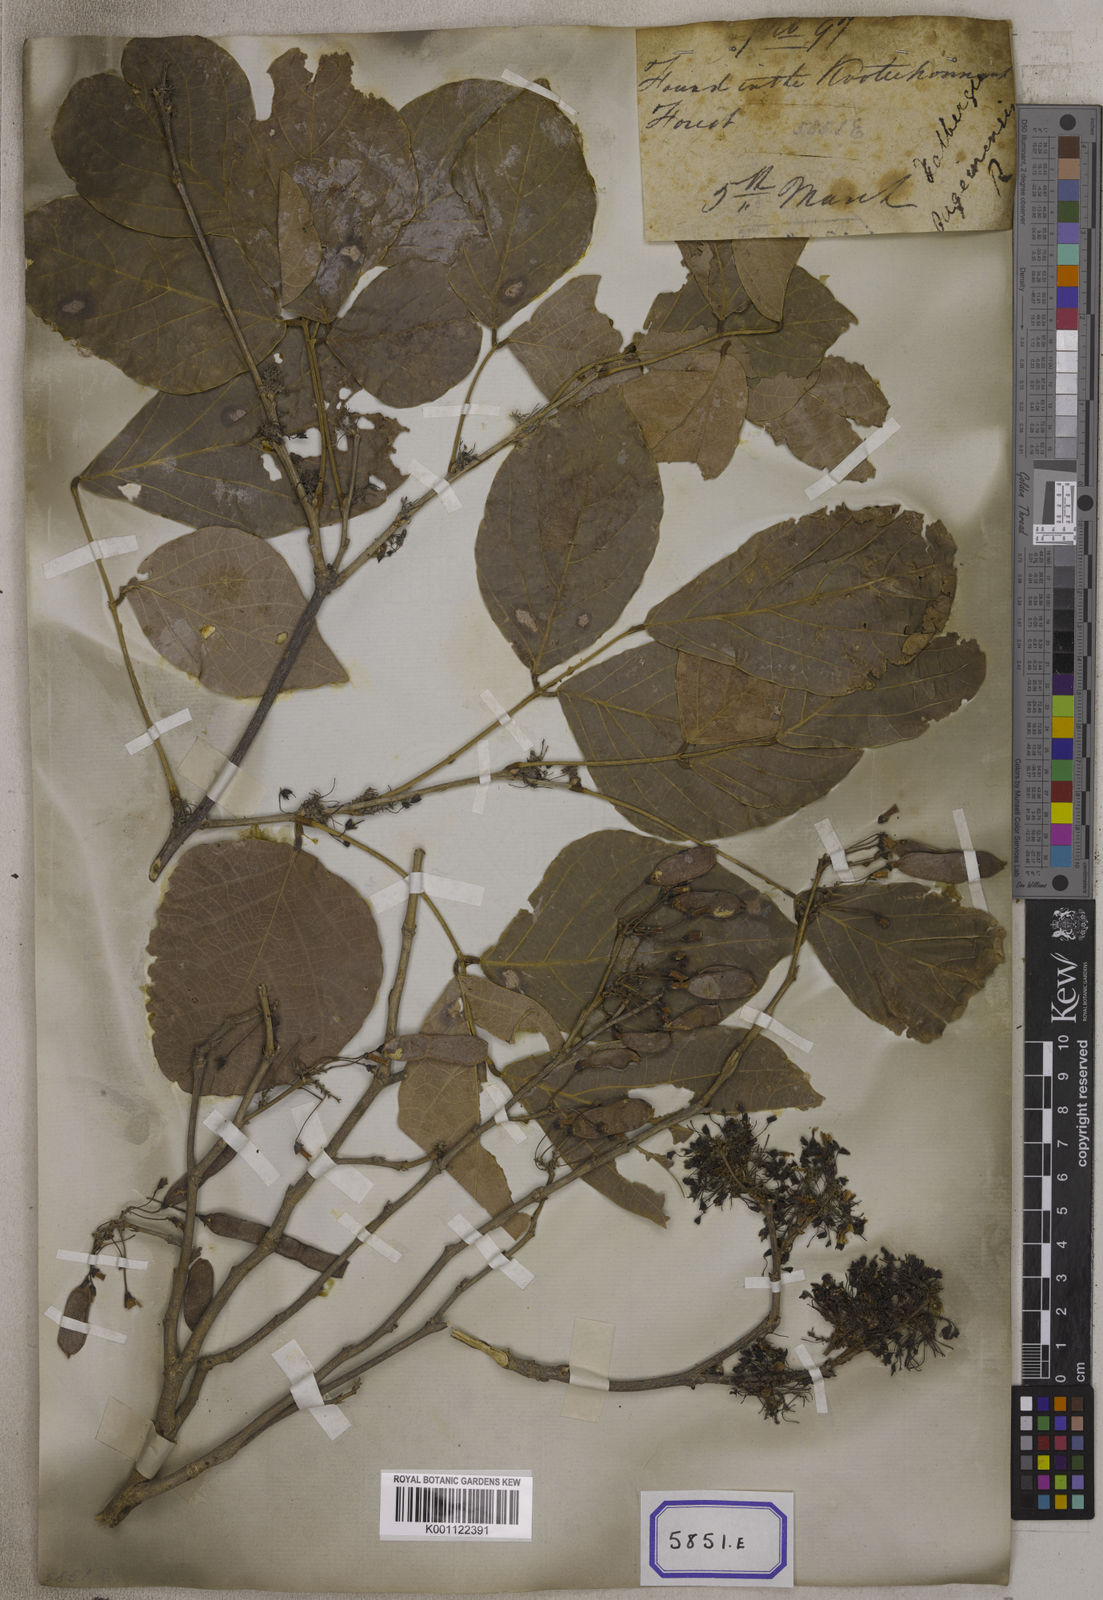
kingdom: Plantae
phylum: Tracheophyta
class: Magnoliopsida
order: Fabales
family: Fabaceae
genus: Ougeinia
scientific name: Ougeinia oojeinensis
